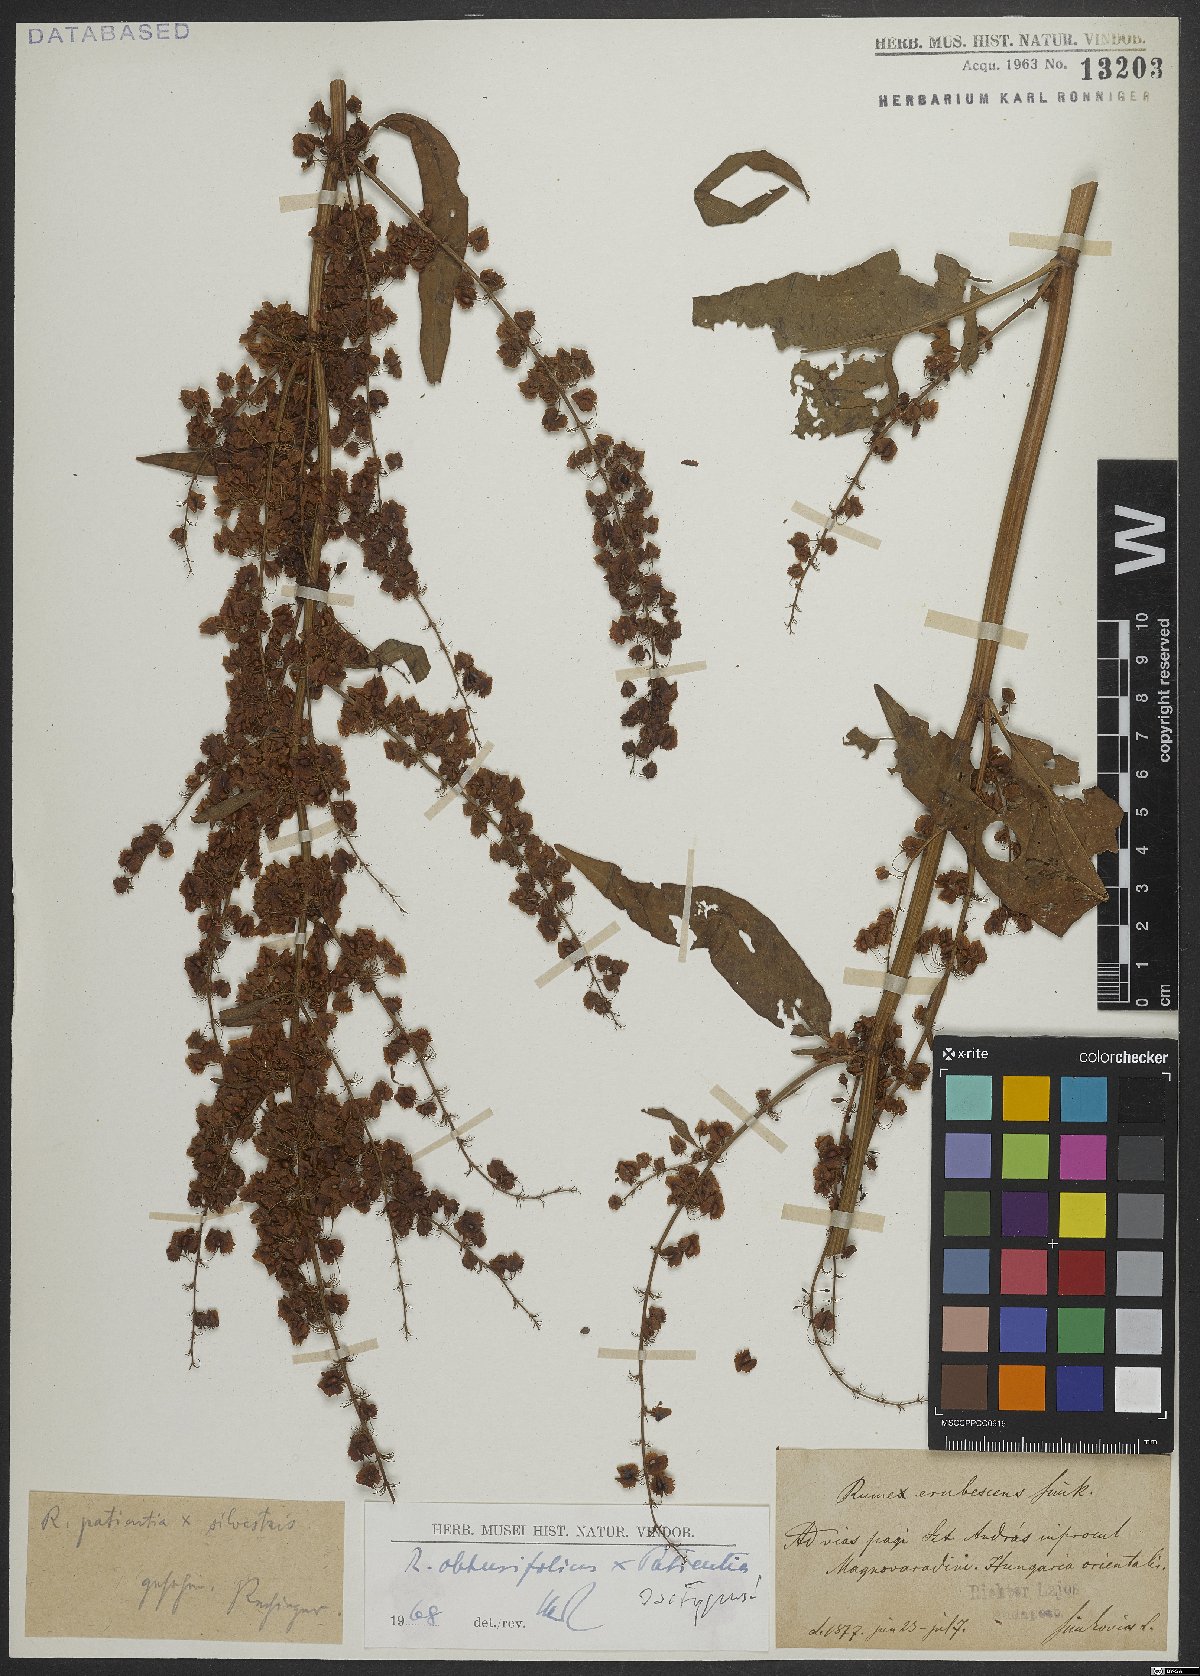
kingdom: Plantae
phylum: Tracheophyta
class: Magnoliopsida
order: Caryophyllales
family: Polygonaceae
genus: Rumex
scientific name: Rumex erubescens
